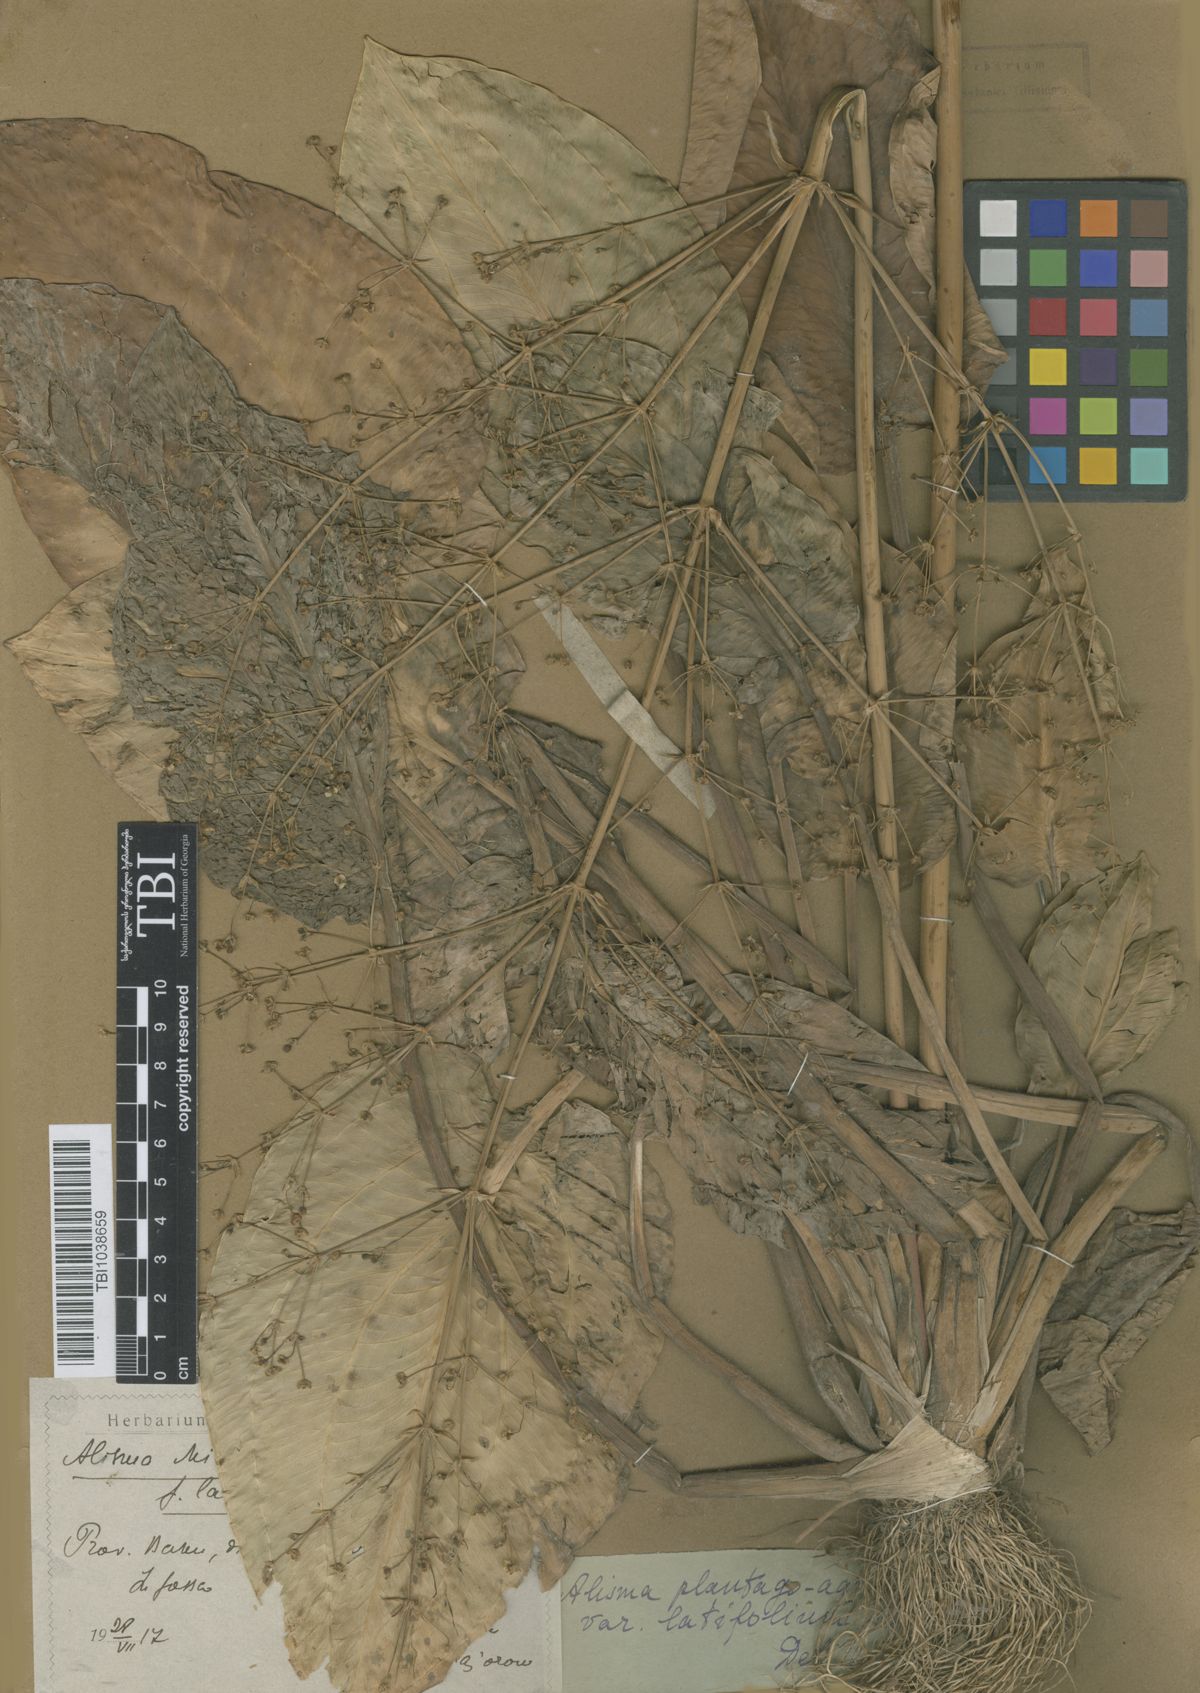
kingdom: Plantae
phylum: Tracheophyta
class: Liliopsida
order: Alismatales
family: Alismataceae
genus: Alisma
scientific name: Alisma plantago-aquatica
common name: Water-plantain
